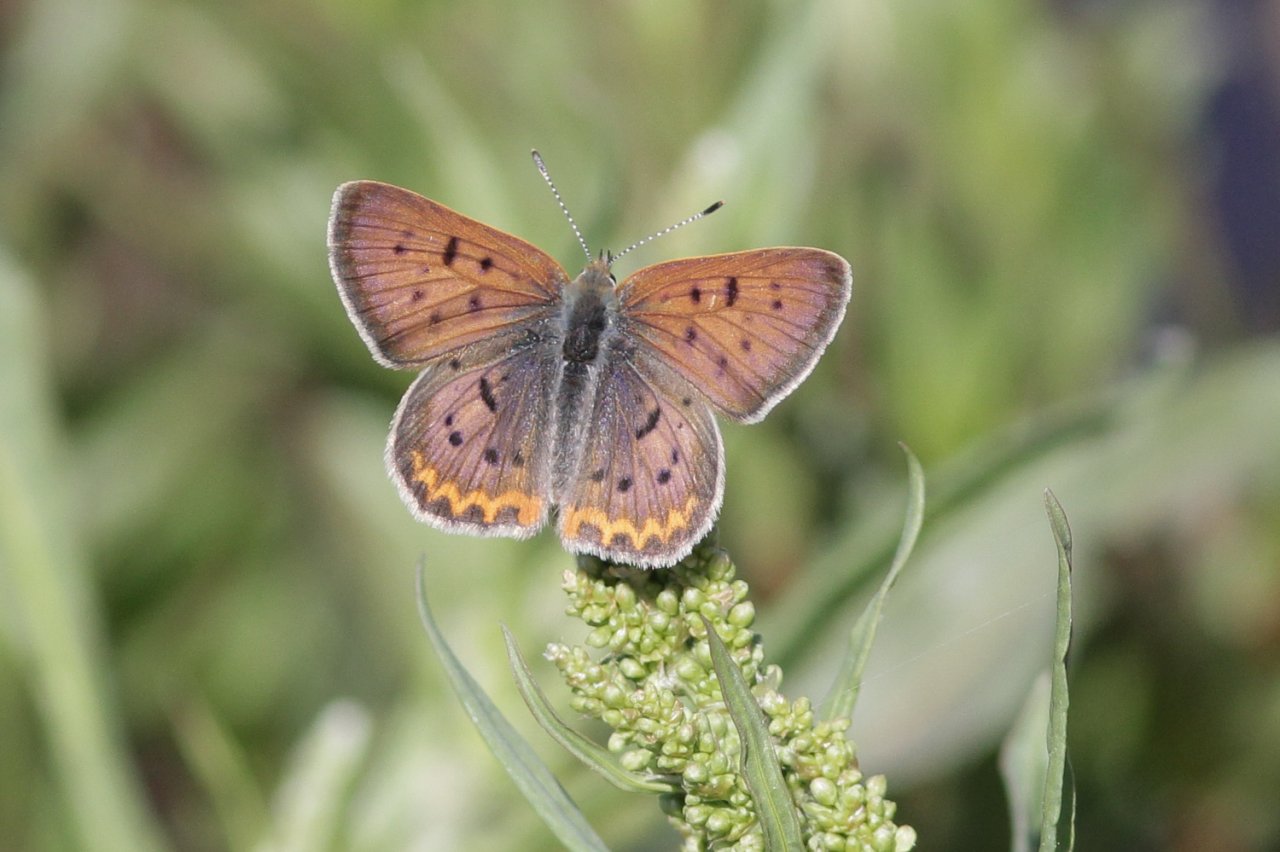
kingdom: Animalia
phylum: Arthropoda
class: Insecta
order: Lepidoptera
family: Sesiidae
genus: Sesia
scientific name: Sesia Lycaena helloides
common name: Purplish Copper
